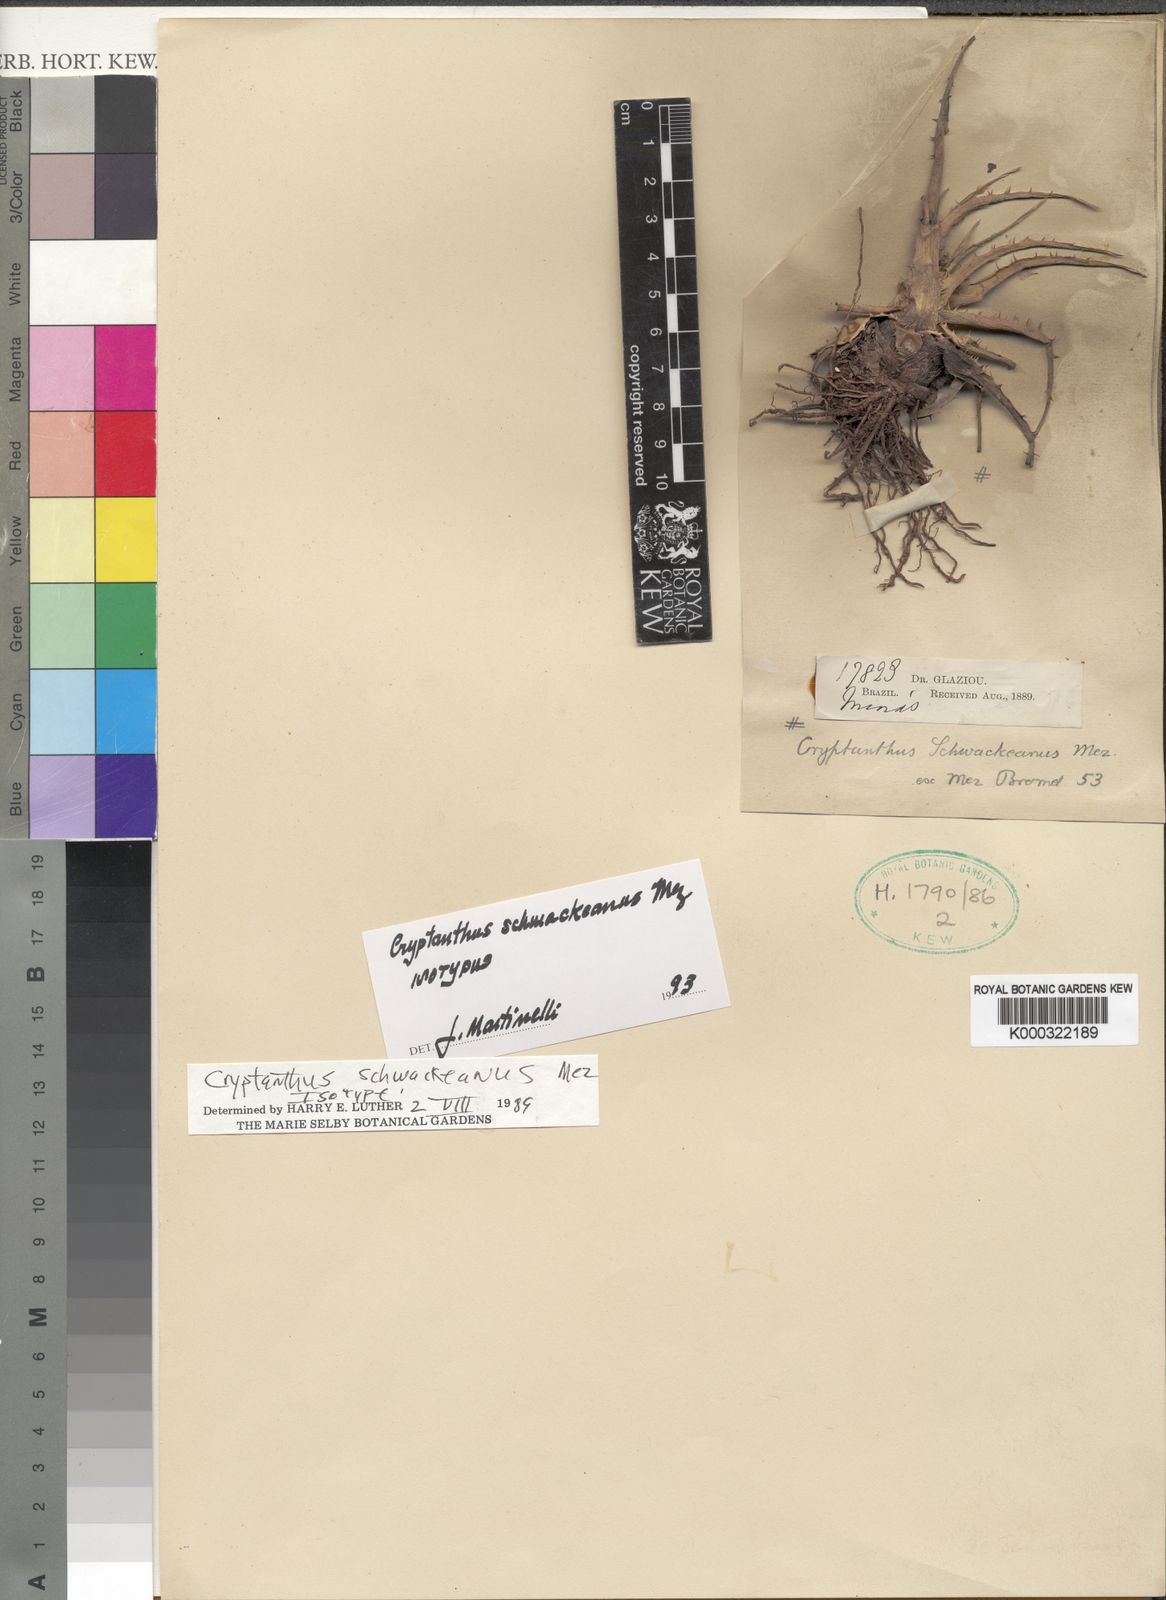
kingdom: Plantae
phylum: Tracheophyta
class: Liliopsida
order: Poales
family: Bromeliaceae
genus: Hoplocryptanthus
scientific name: Hoplocryptanthus schwackeanus
